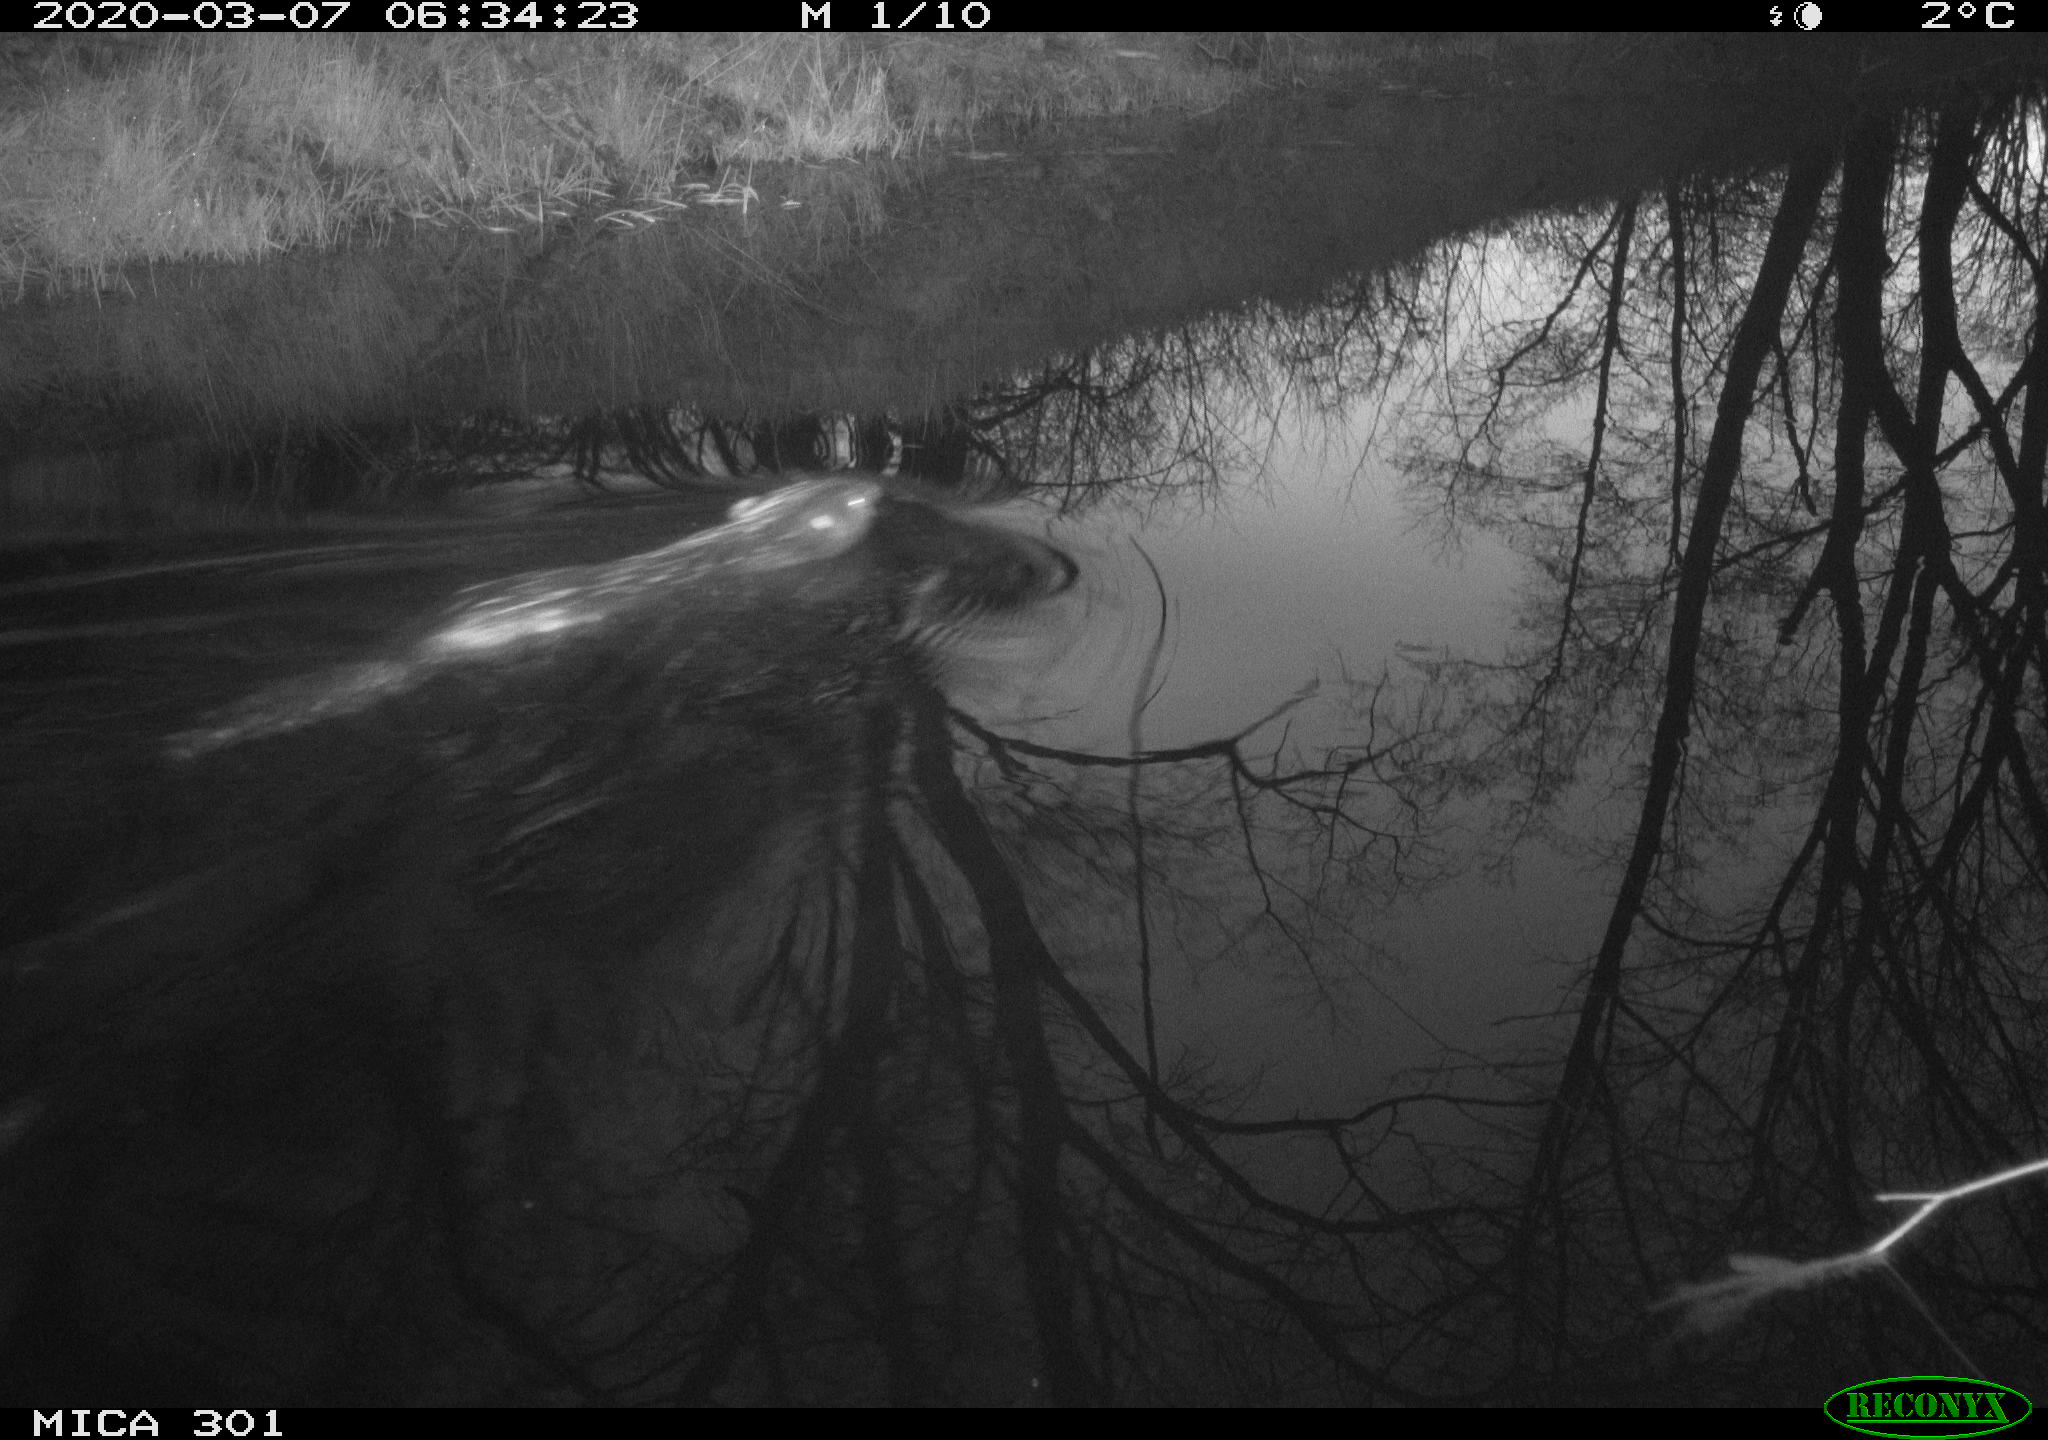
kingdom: Animalia
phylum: Chordata
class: Mammalia
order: Rodentia
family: Castoridae
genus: Castor
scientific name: Castor fiber
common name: Eurasian beaver
